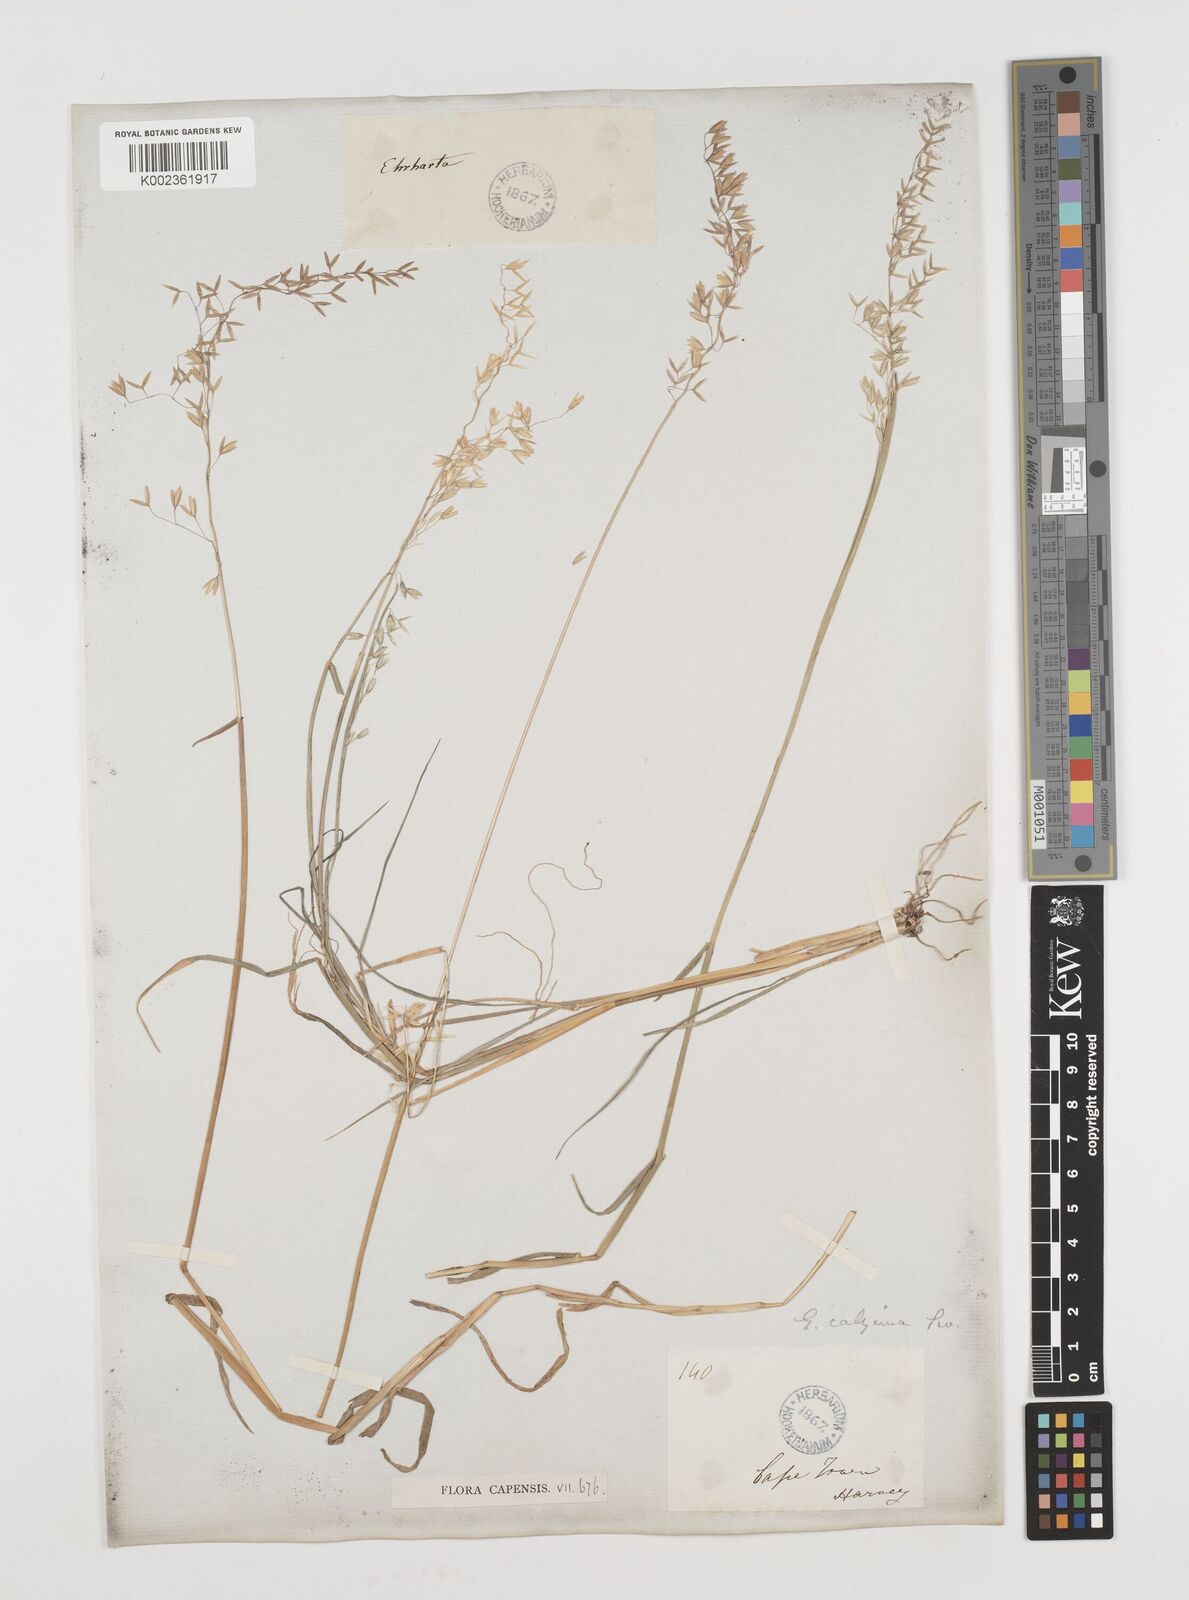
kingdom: Plantae
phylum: Tracheophyta
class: Liliopsida
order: Poales
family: Poaceae
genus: Ehrharta
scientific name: Ehrharta calycina
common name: Perennial veldtgrass
